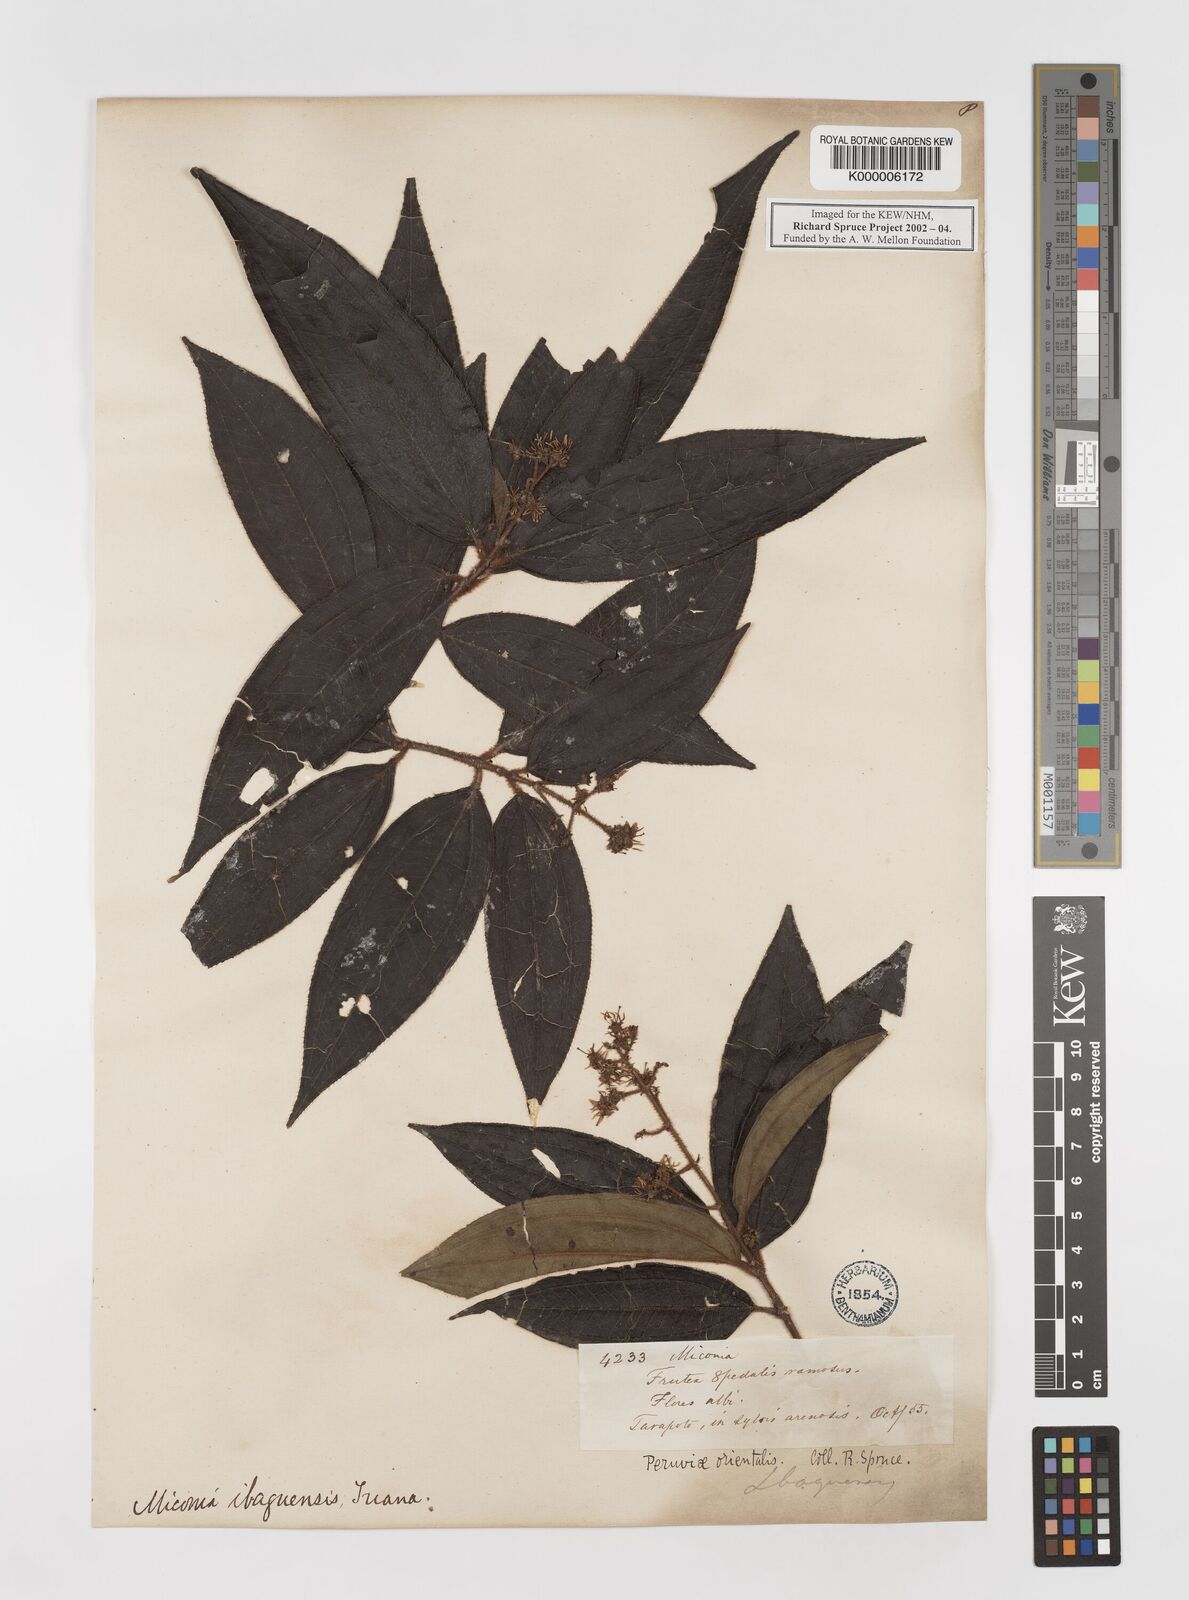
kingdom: Plantae
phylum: Tracheophyta
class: Magnoliopsida
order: Myrtales
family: Melastomataceae
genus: Miconia
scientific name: Miconia ibaguensis
